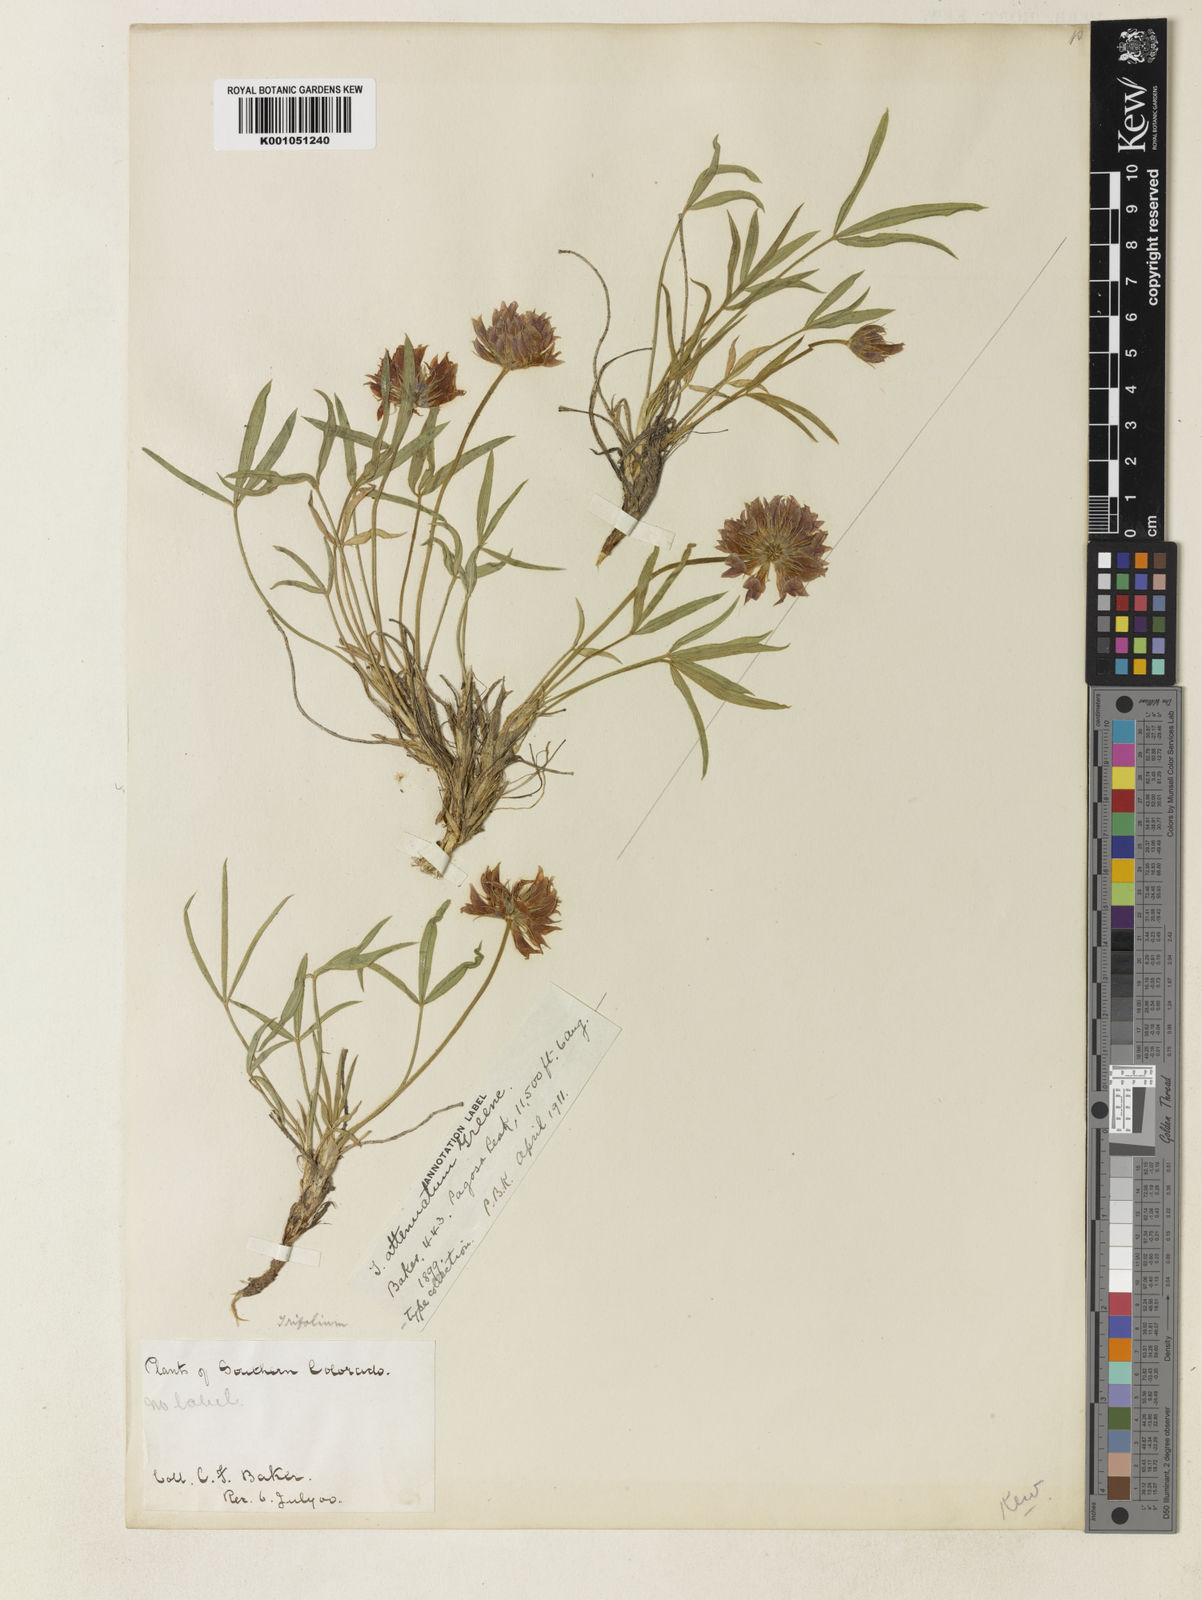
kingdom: Plantae
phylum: Tracheophyta
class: Magnoliopsida
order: Fabales
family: Fabaceae
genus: Trifolium
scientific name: Trifolium dasyphyllum
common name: Whip-root clover
